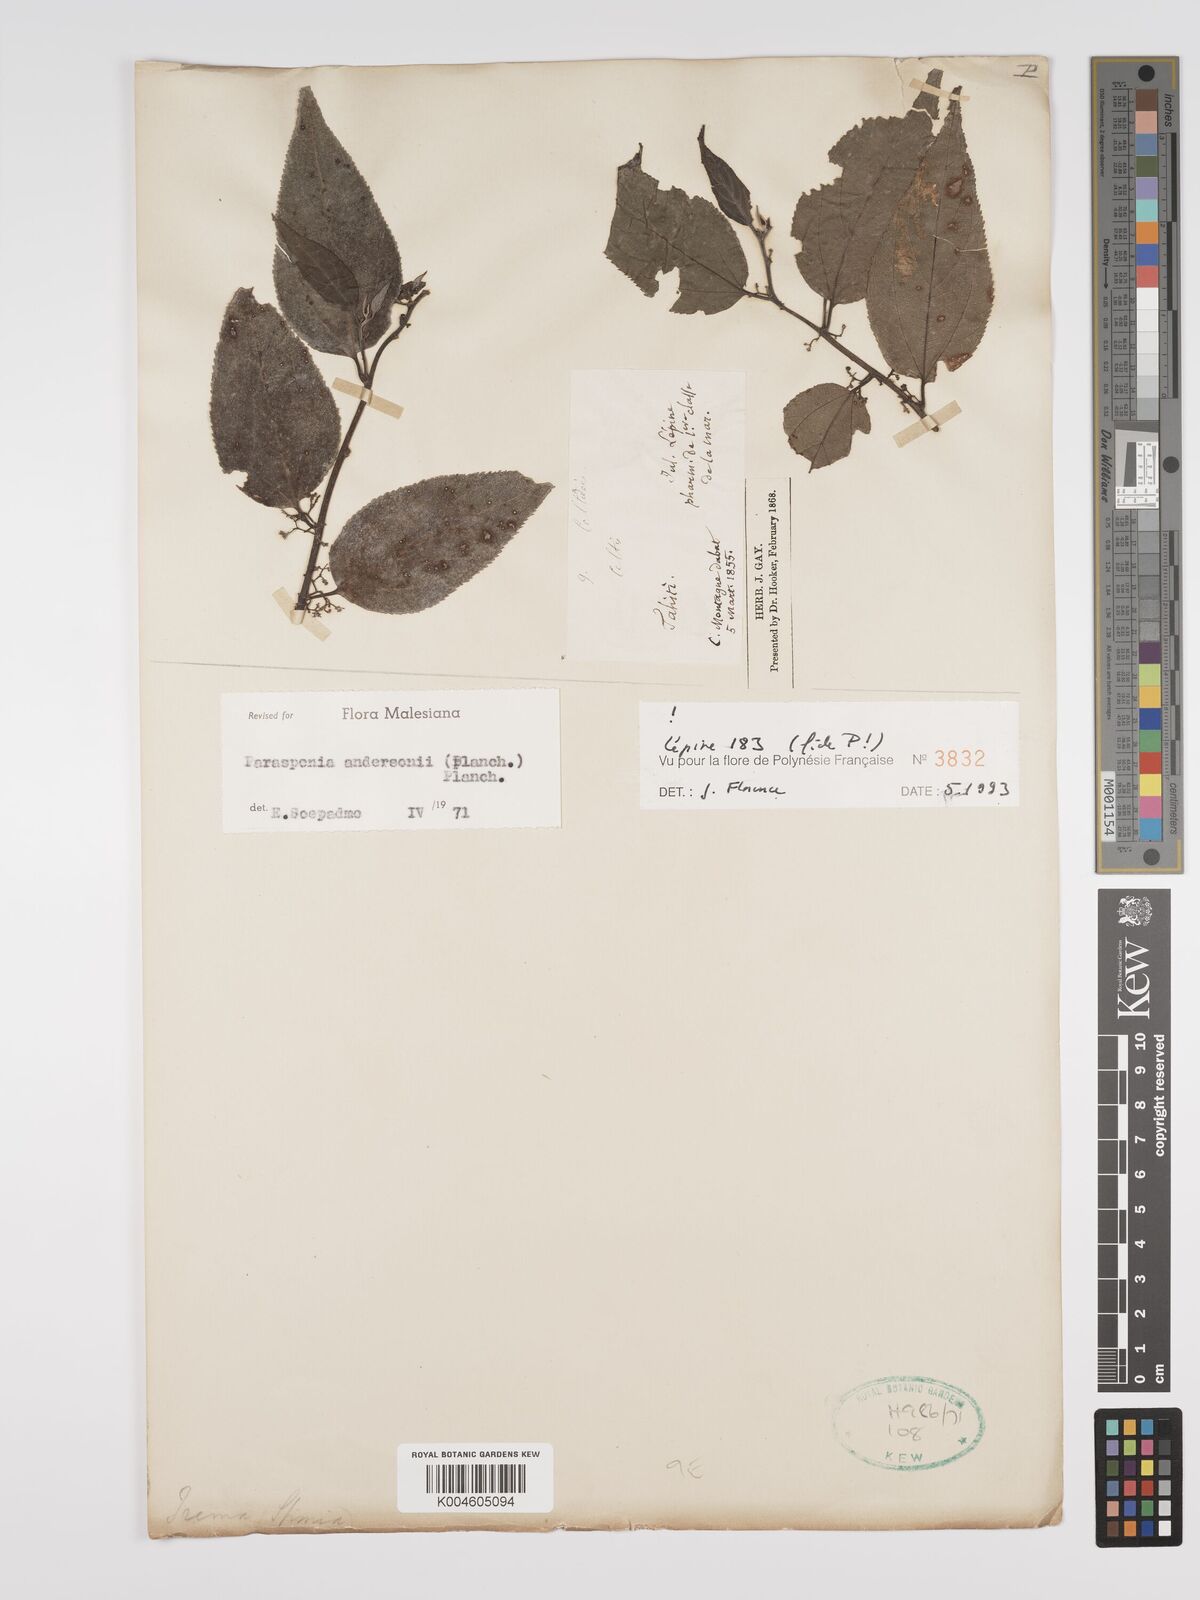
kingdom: Plantae
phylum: Tracheophyta
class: Magnoliopsida
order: Rosales
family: Cannabaceae
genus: Trema
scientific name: Trema andersonii
